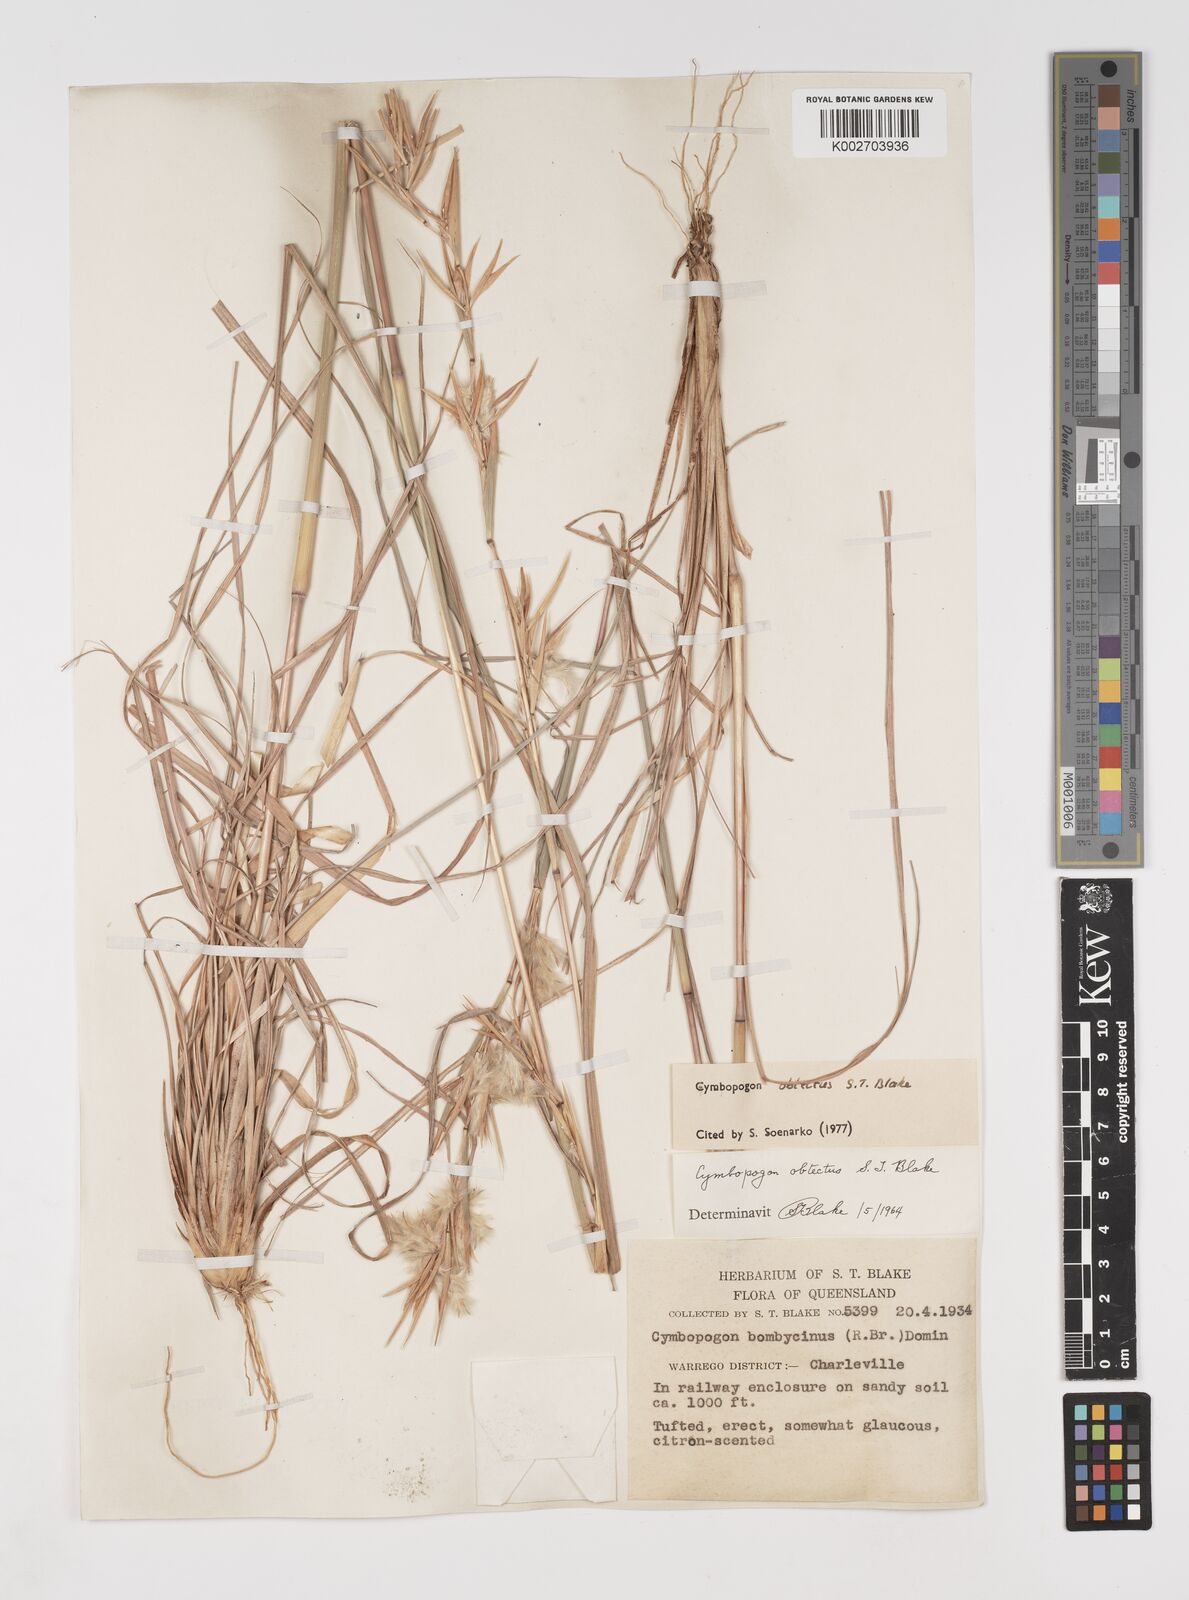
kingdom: Plantae
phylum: Tracheophyta
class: Liliopsida
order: Poales
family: Poaceae
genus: Cymbopogon
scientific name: Cymbopogon obtectus
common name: Silky heads
